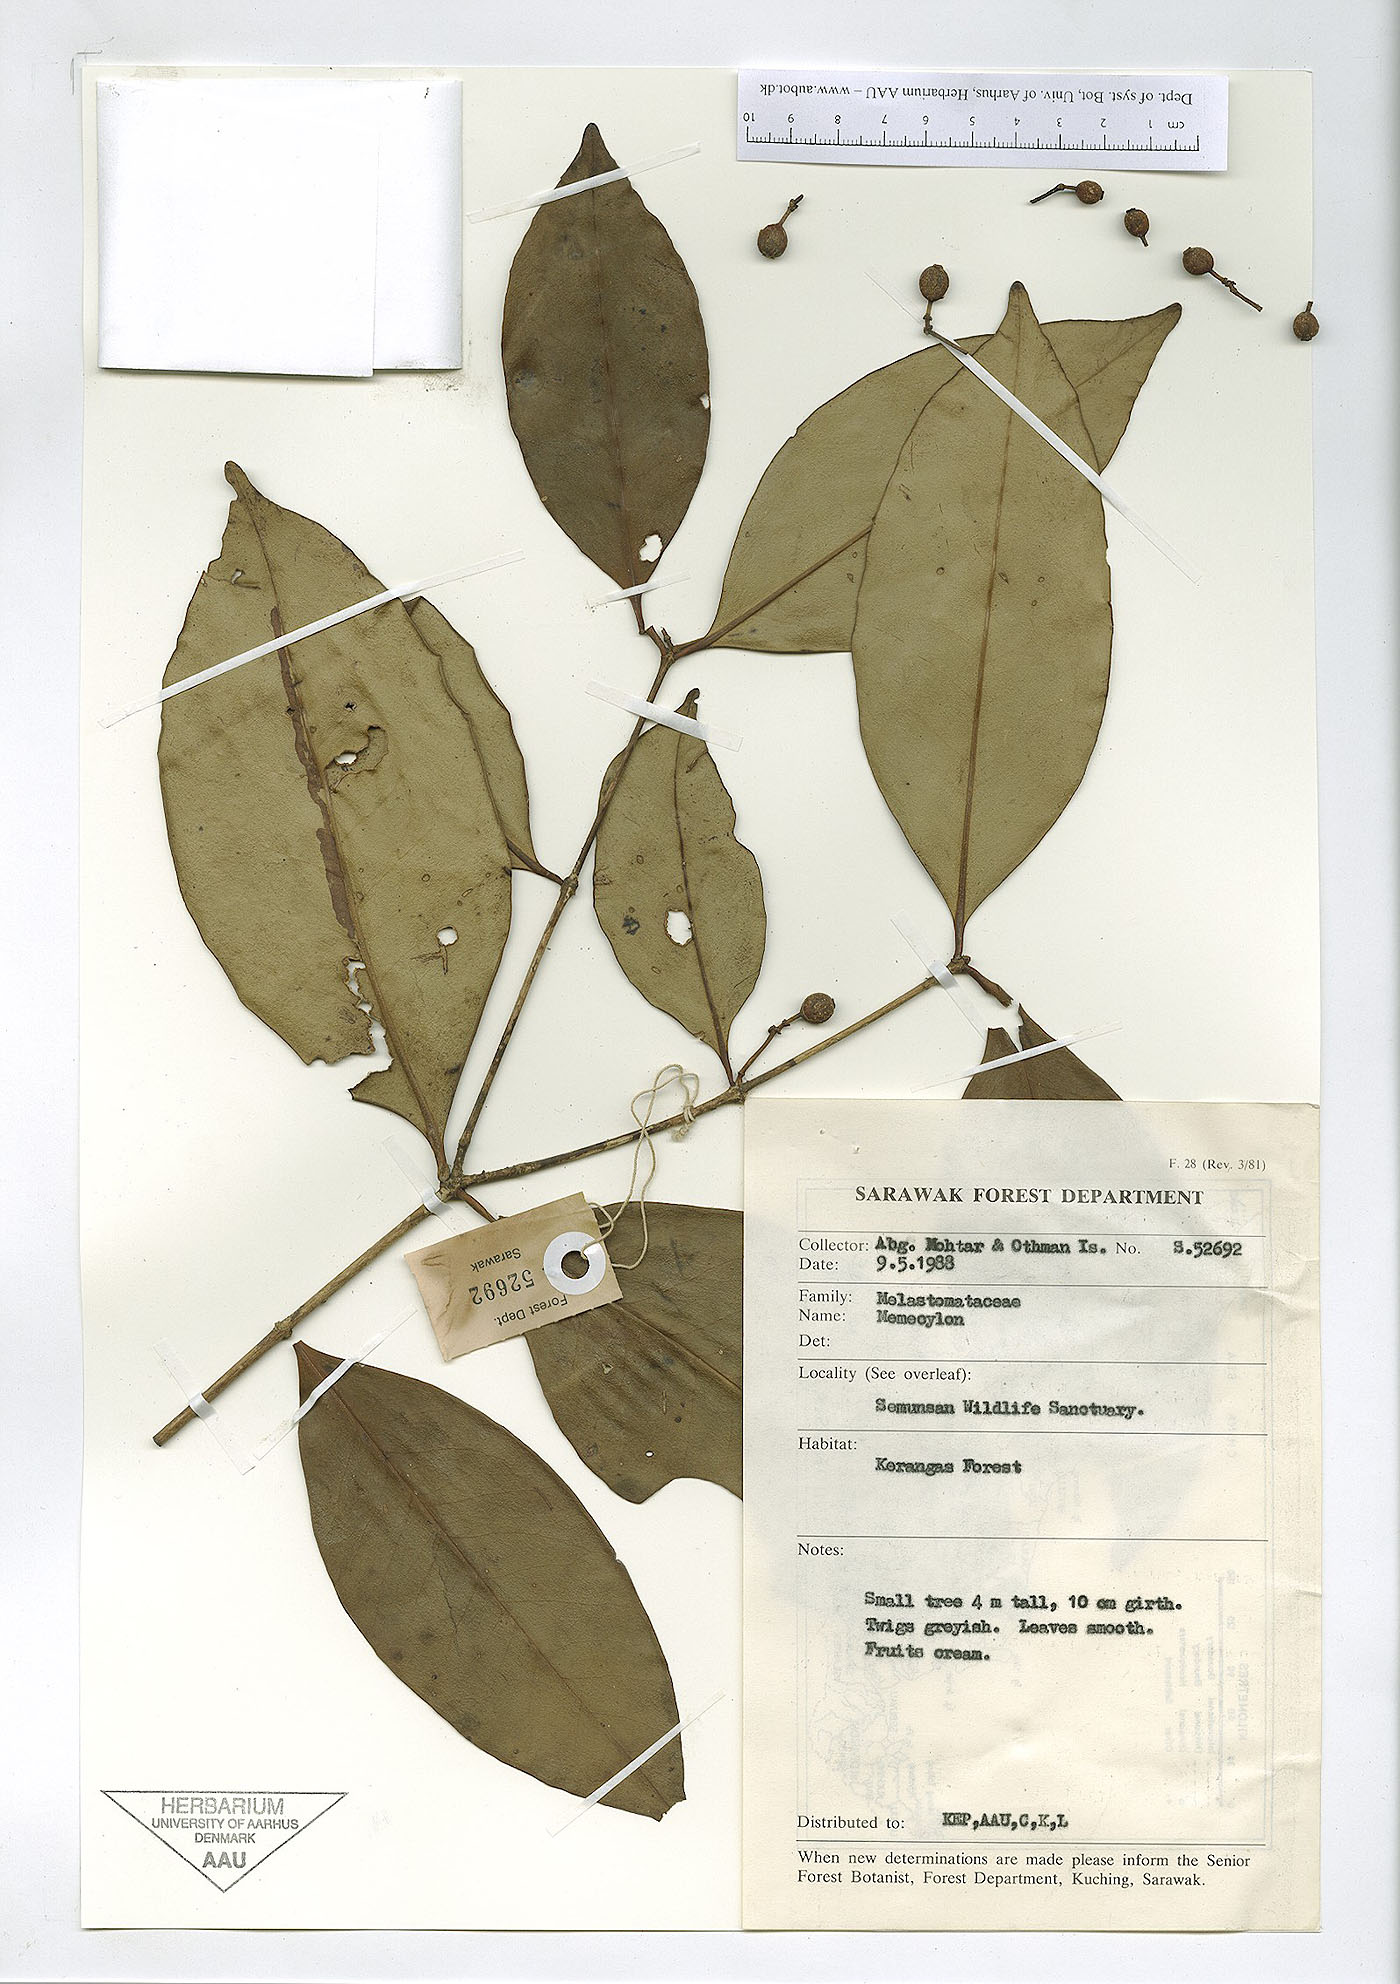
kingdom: Plantae
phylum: Tracheophyta
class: Magnoliopsida
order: Myrtales
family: Melastomataceae
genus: Memecylon
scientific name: Memecylon
